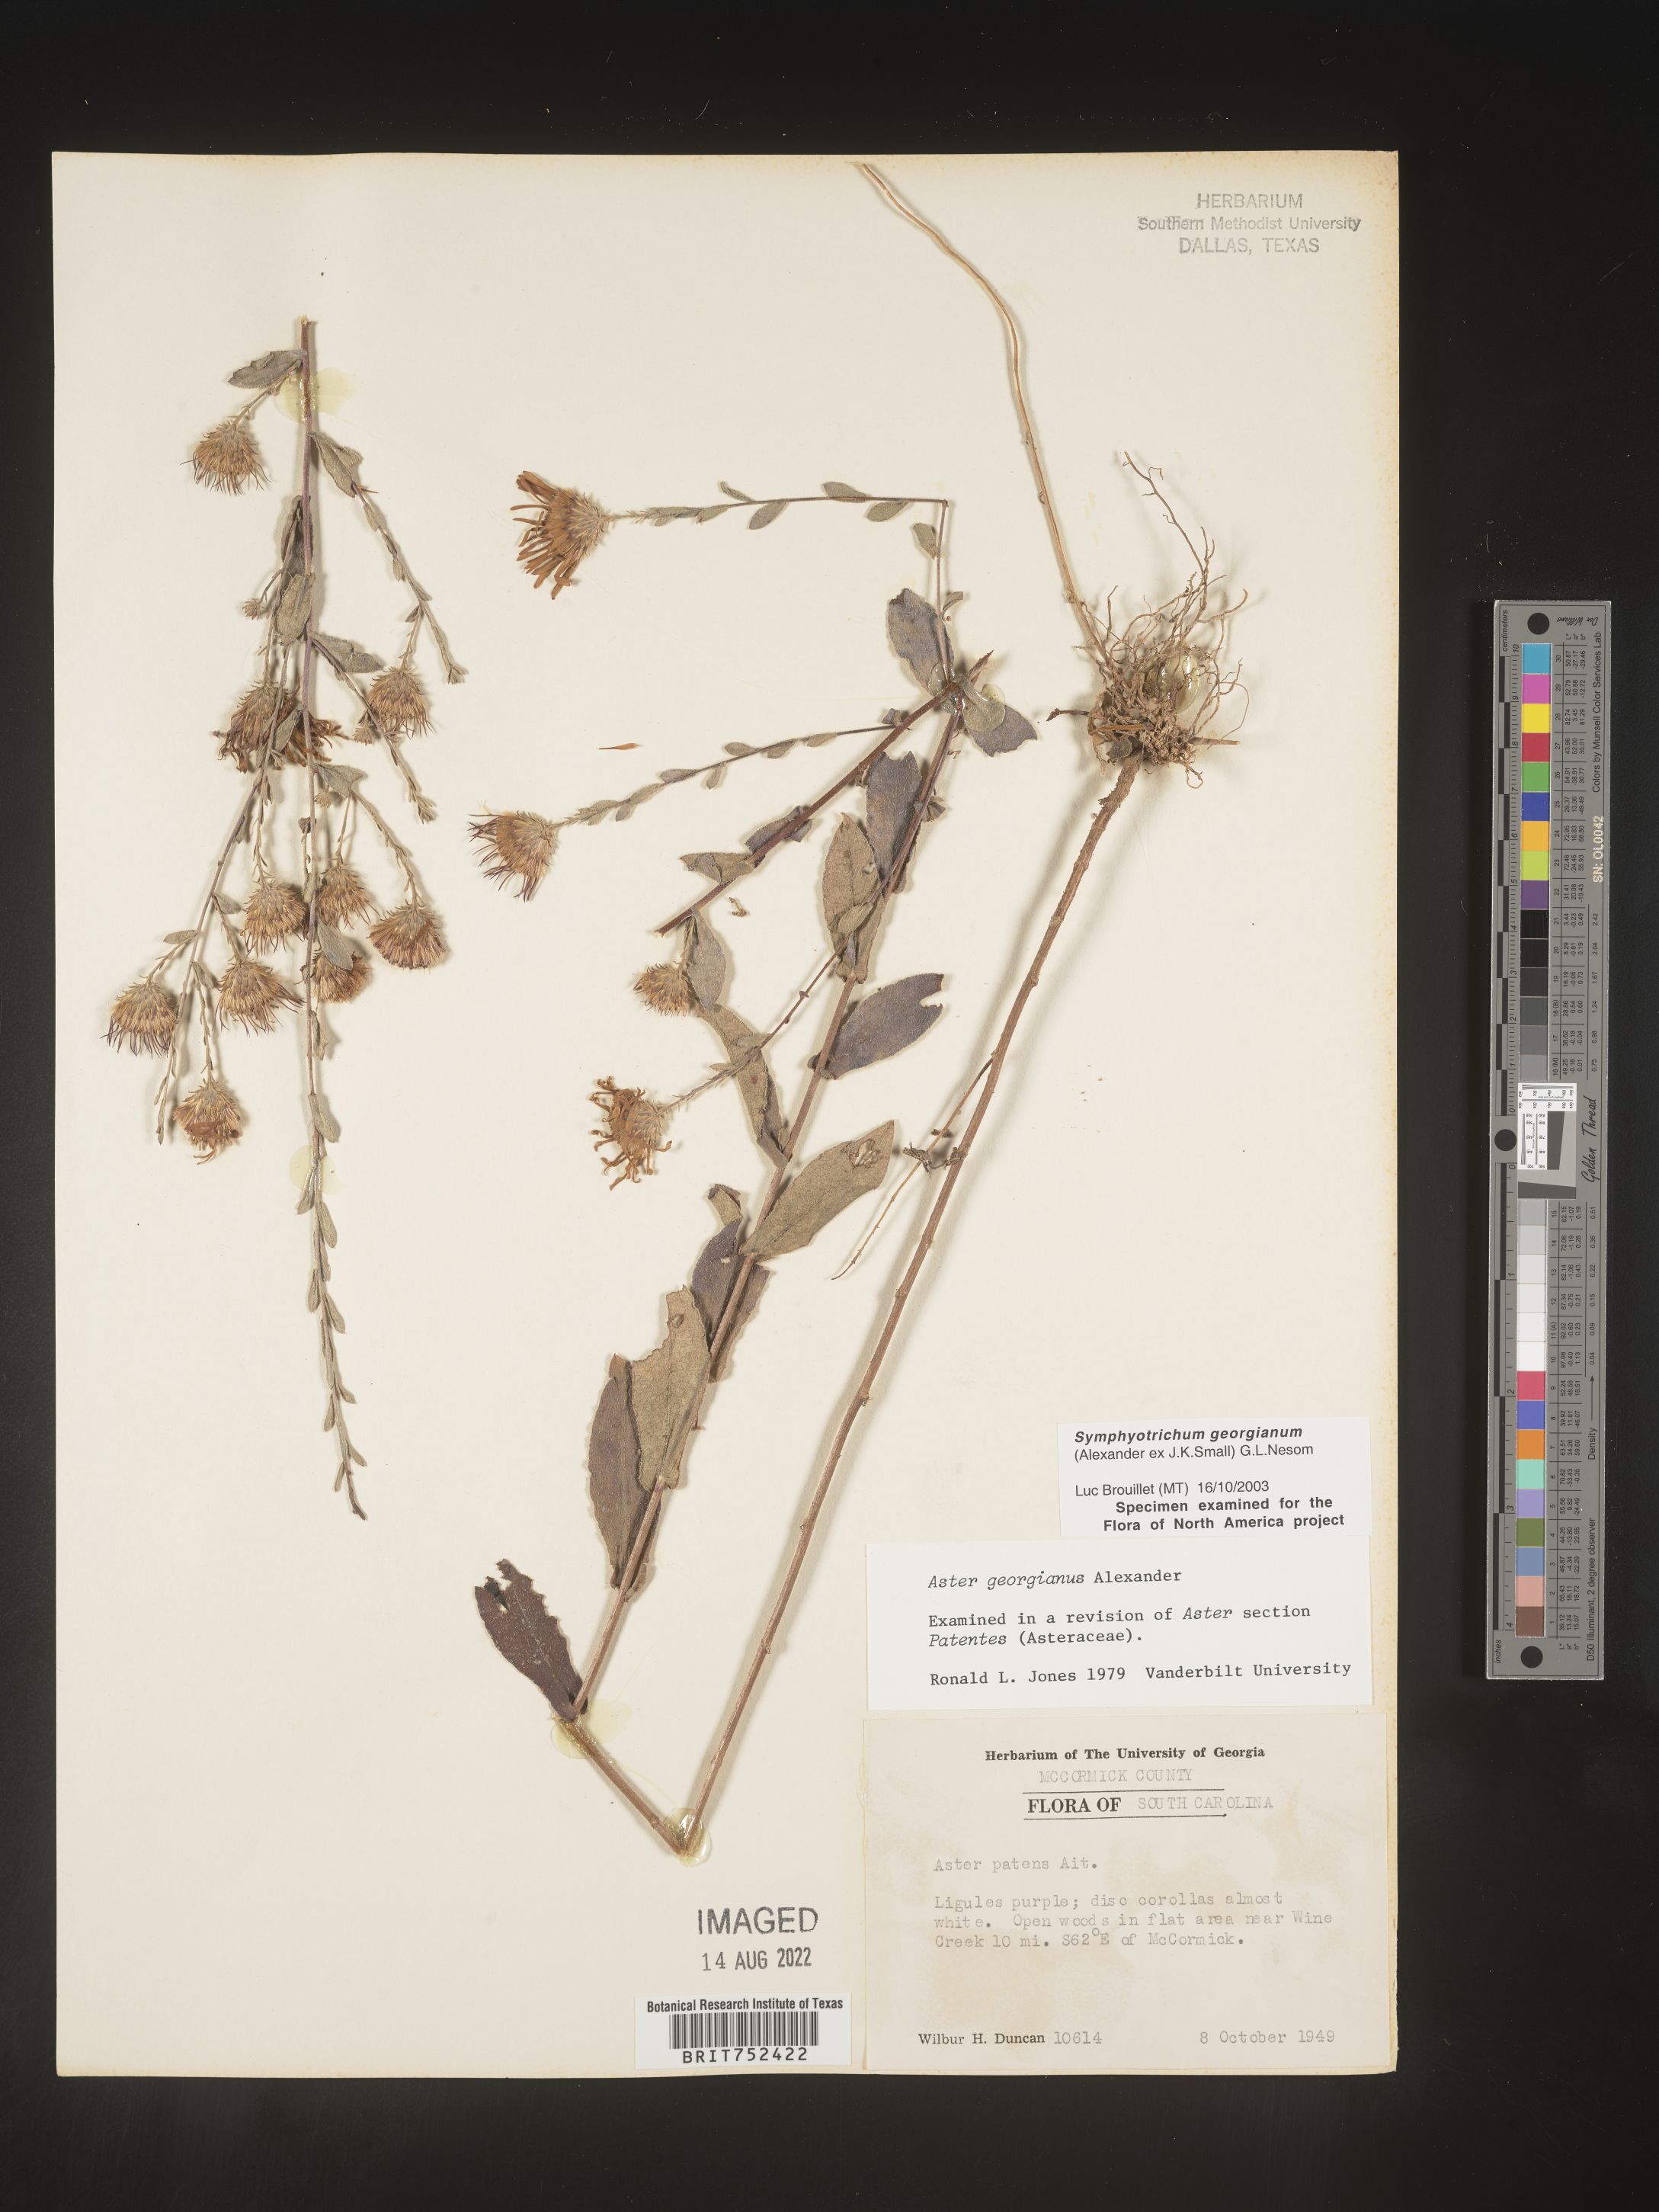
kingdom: Plantae
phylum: Tracheophyta
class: Magnoliopsida
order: Asterales
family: Asteraceae
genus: Symphyotrichum
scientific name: Symphyotrichum georgianum
